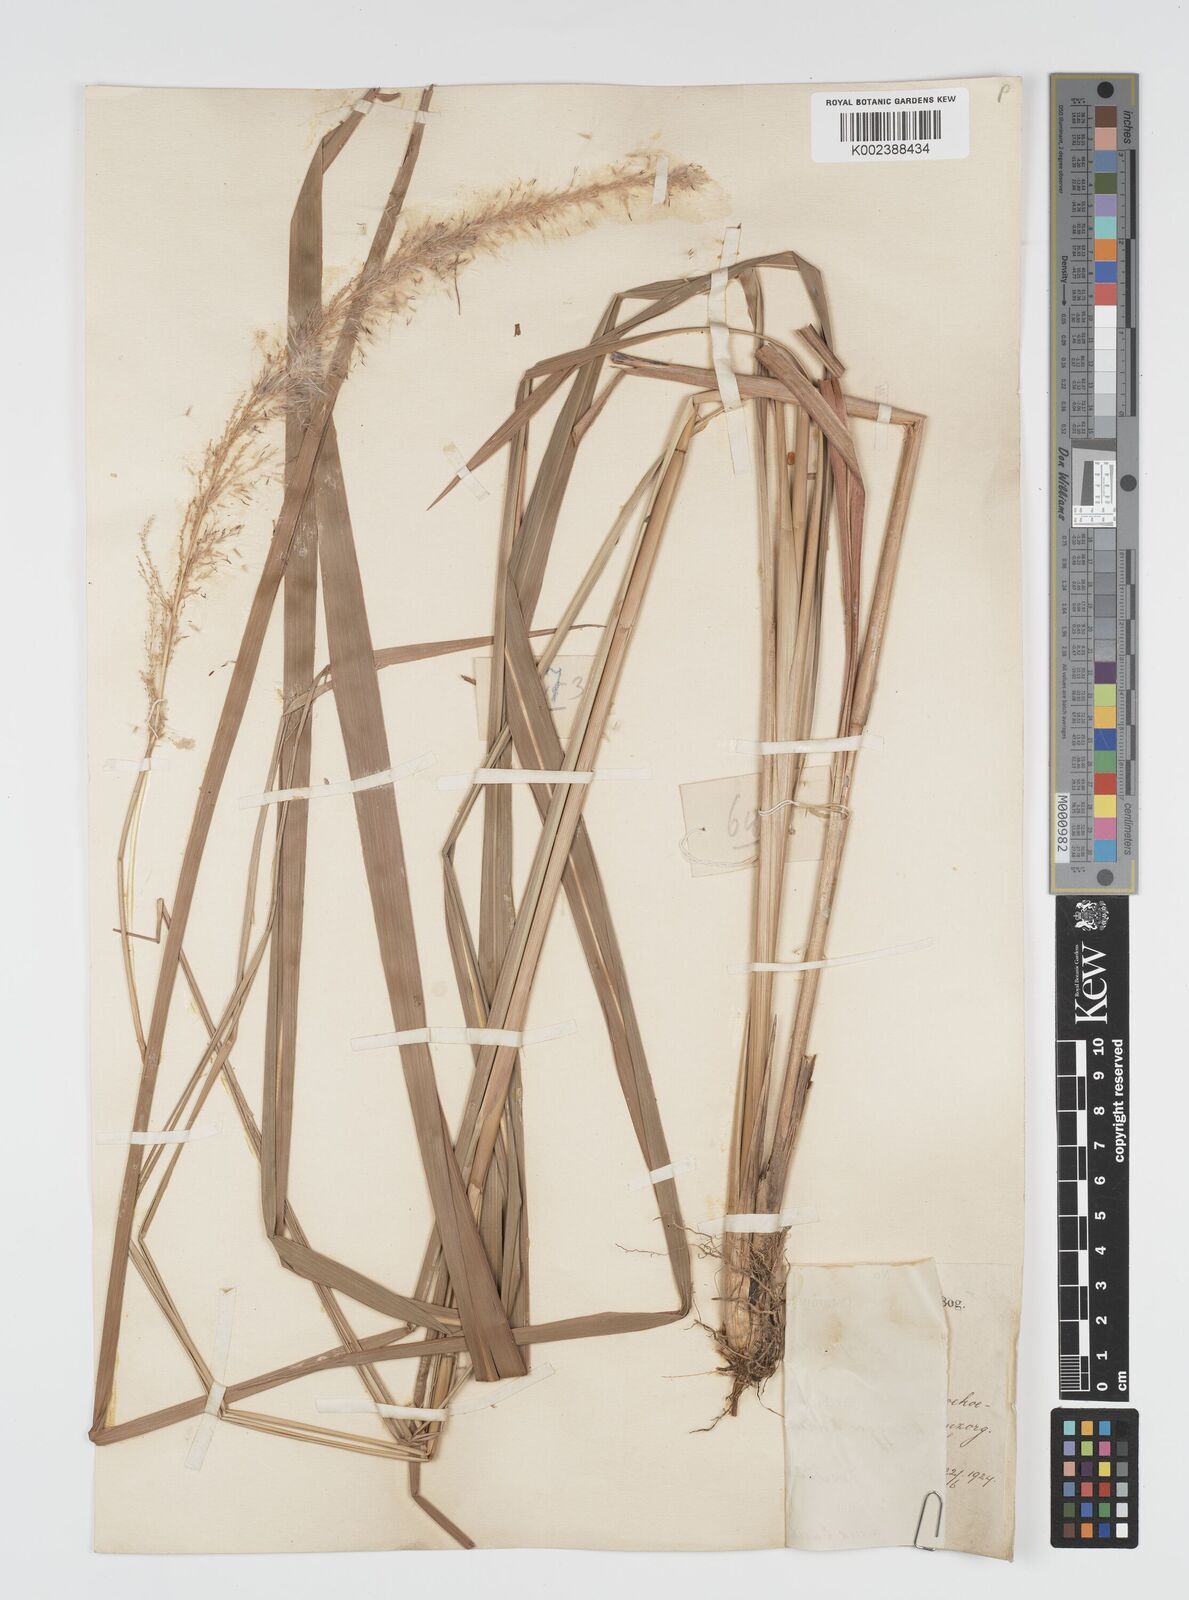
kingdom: Plantae
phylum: Tracheophyta
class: Liliopsida
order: Poales
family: Poaceae
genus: Imperata
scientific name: Imperata conferta
